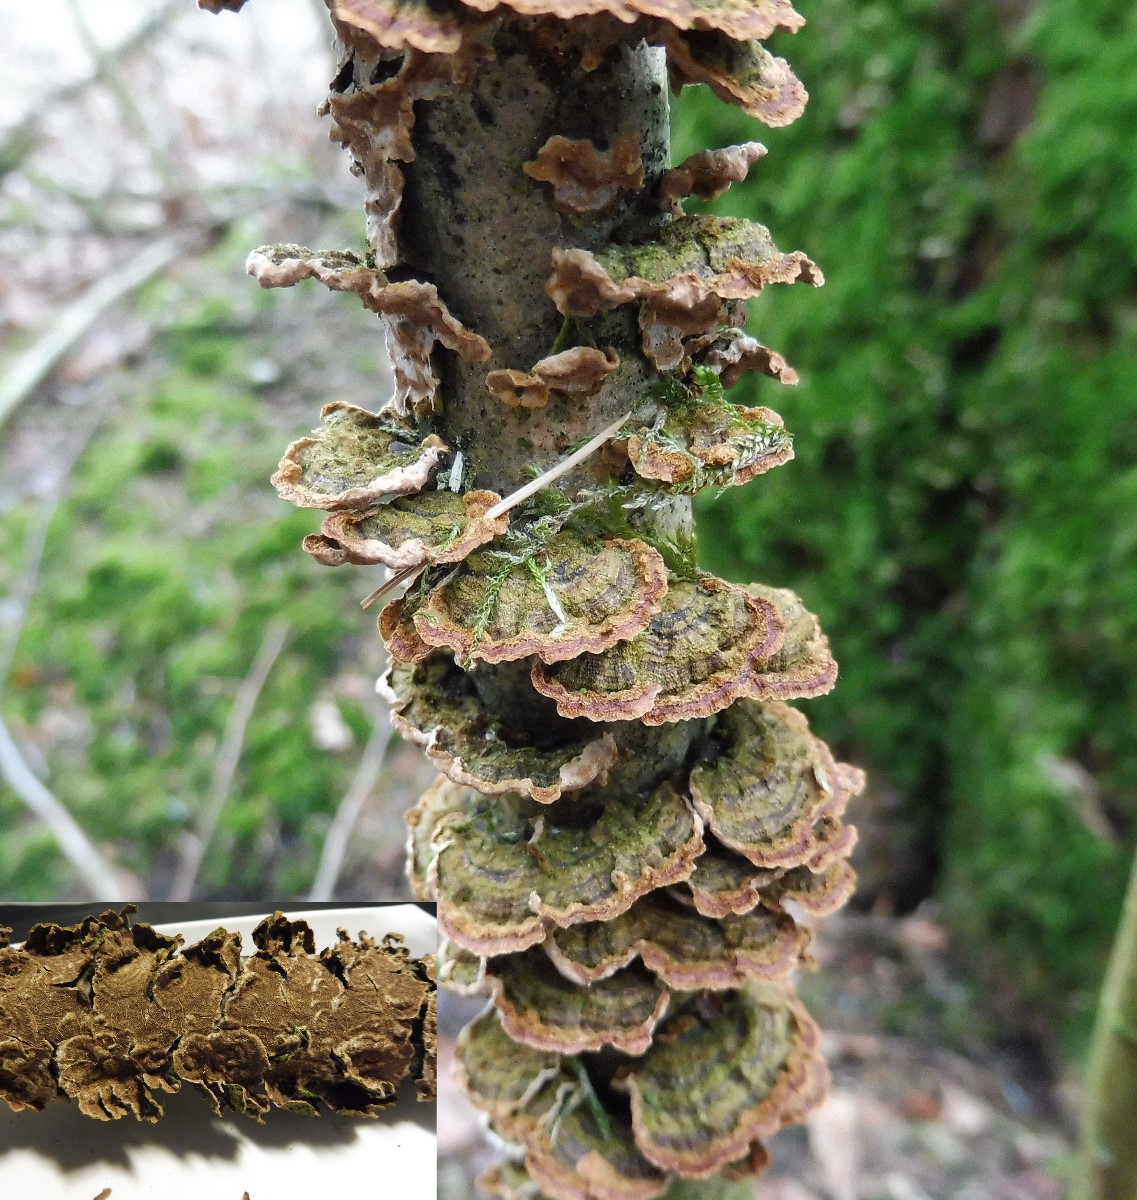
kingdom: Fungi
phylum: Basidiomycota
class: Agaricomycetes
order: Hymenochaetales
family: Hymenochaetaceae
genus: Hydnoporia
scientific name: Hydnoporia tabacina
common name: tobaksbrun ruslædersvamp
